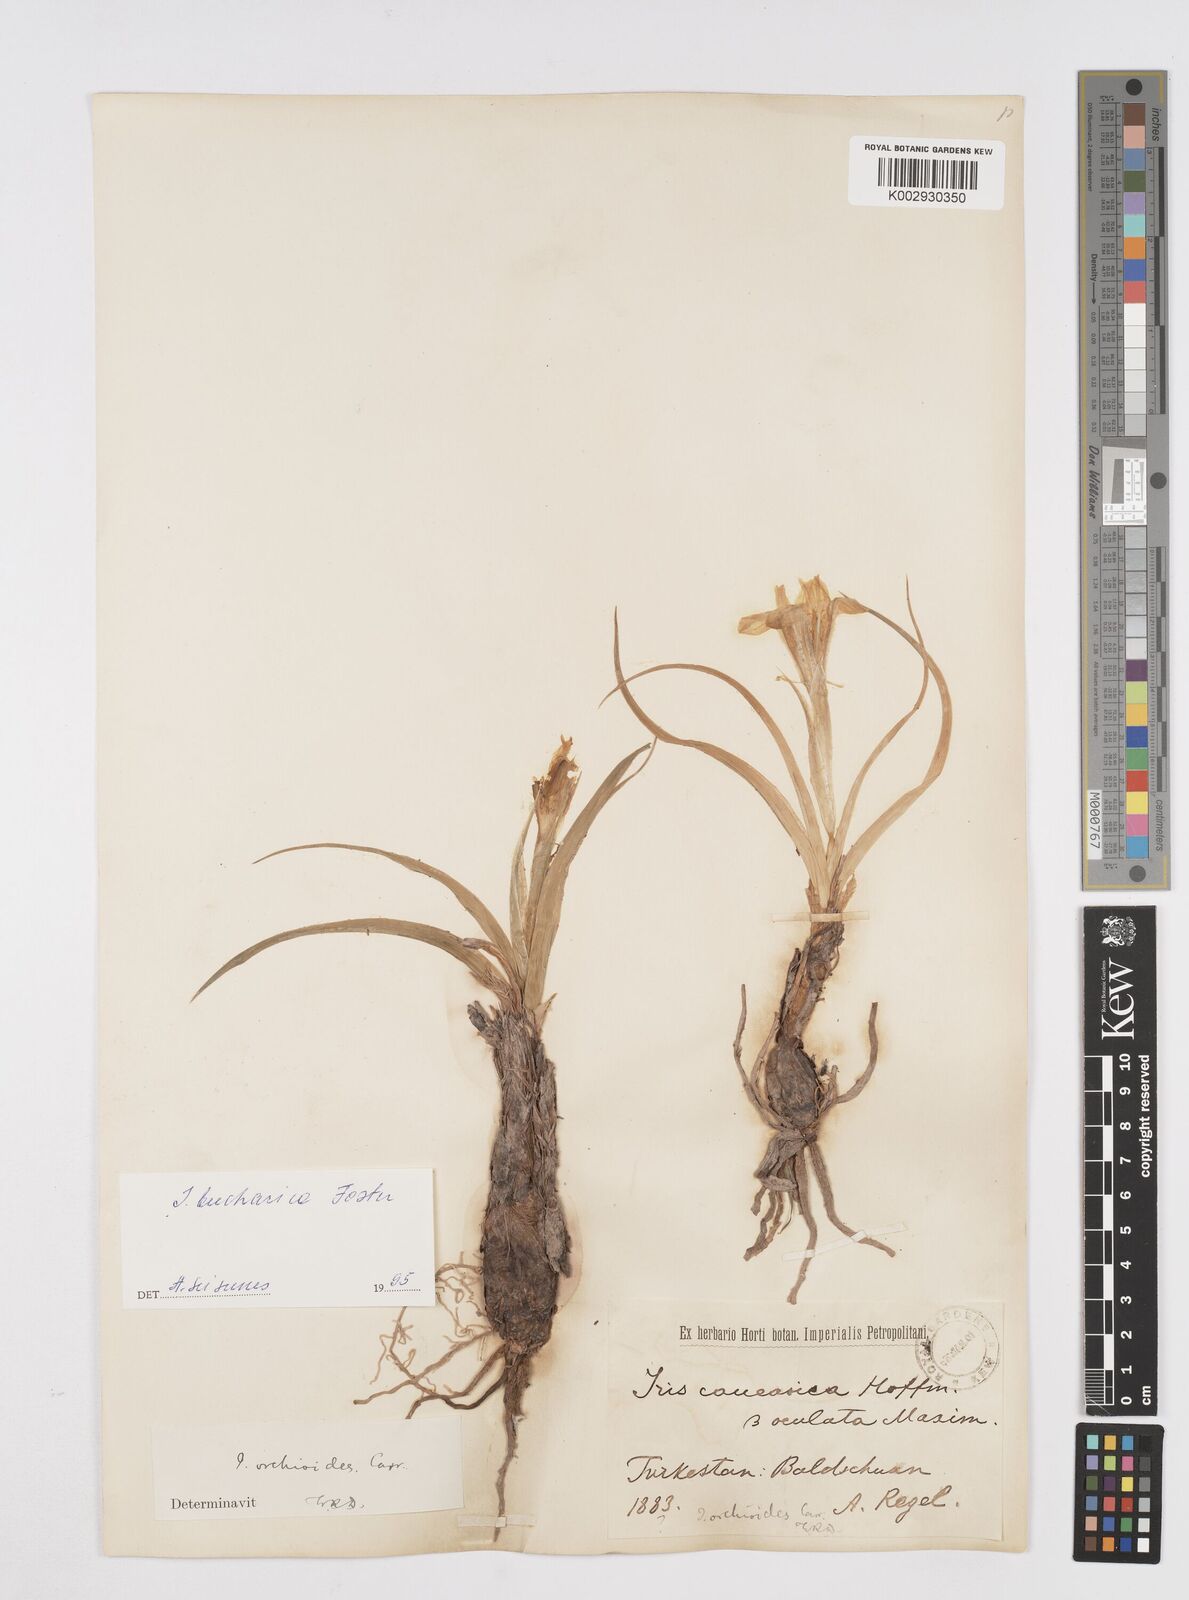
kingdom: Plantae
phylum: Tracheophyta
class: Liliopsida
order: Asparagales
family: Iridaceae
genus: Iris
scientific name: Iris orchioides
